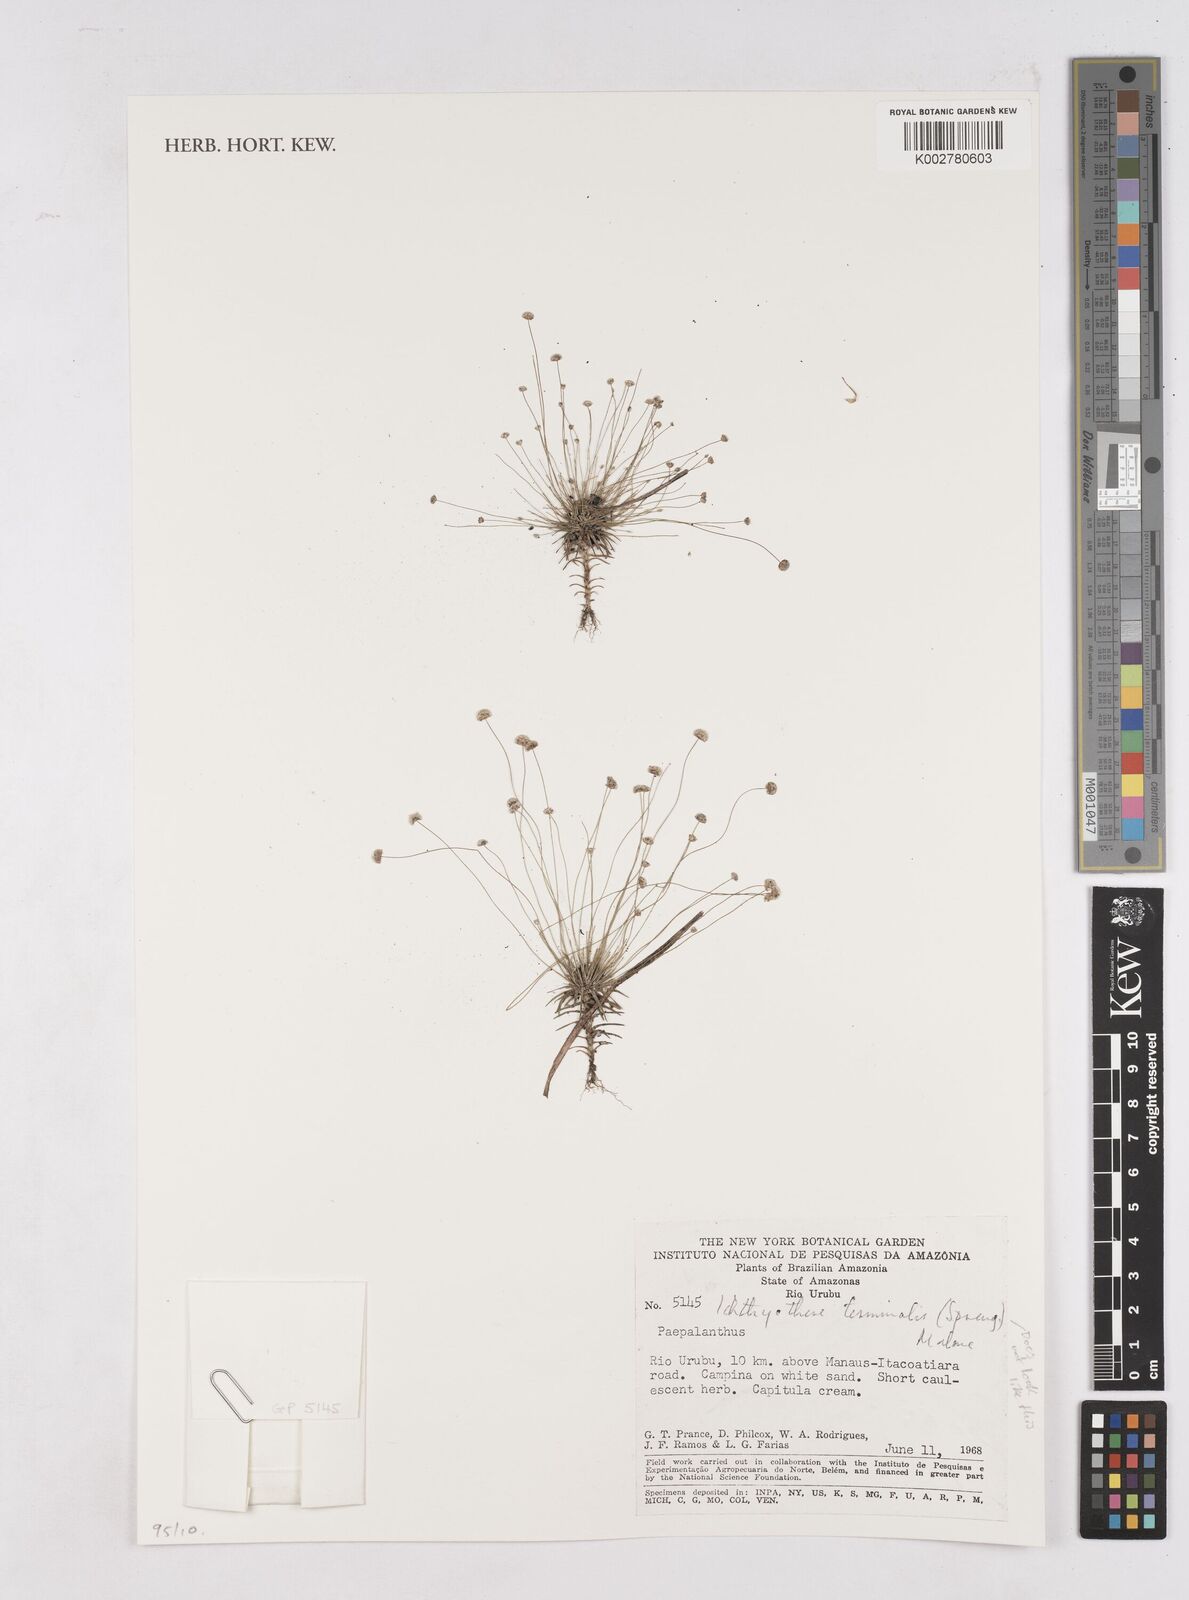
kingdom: Plantae
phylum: Tracheophyta
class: Liliopsida
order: Poales
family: Eriocaulaceae
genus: Paepalanthus
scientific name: Paepalanthus
